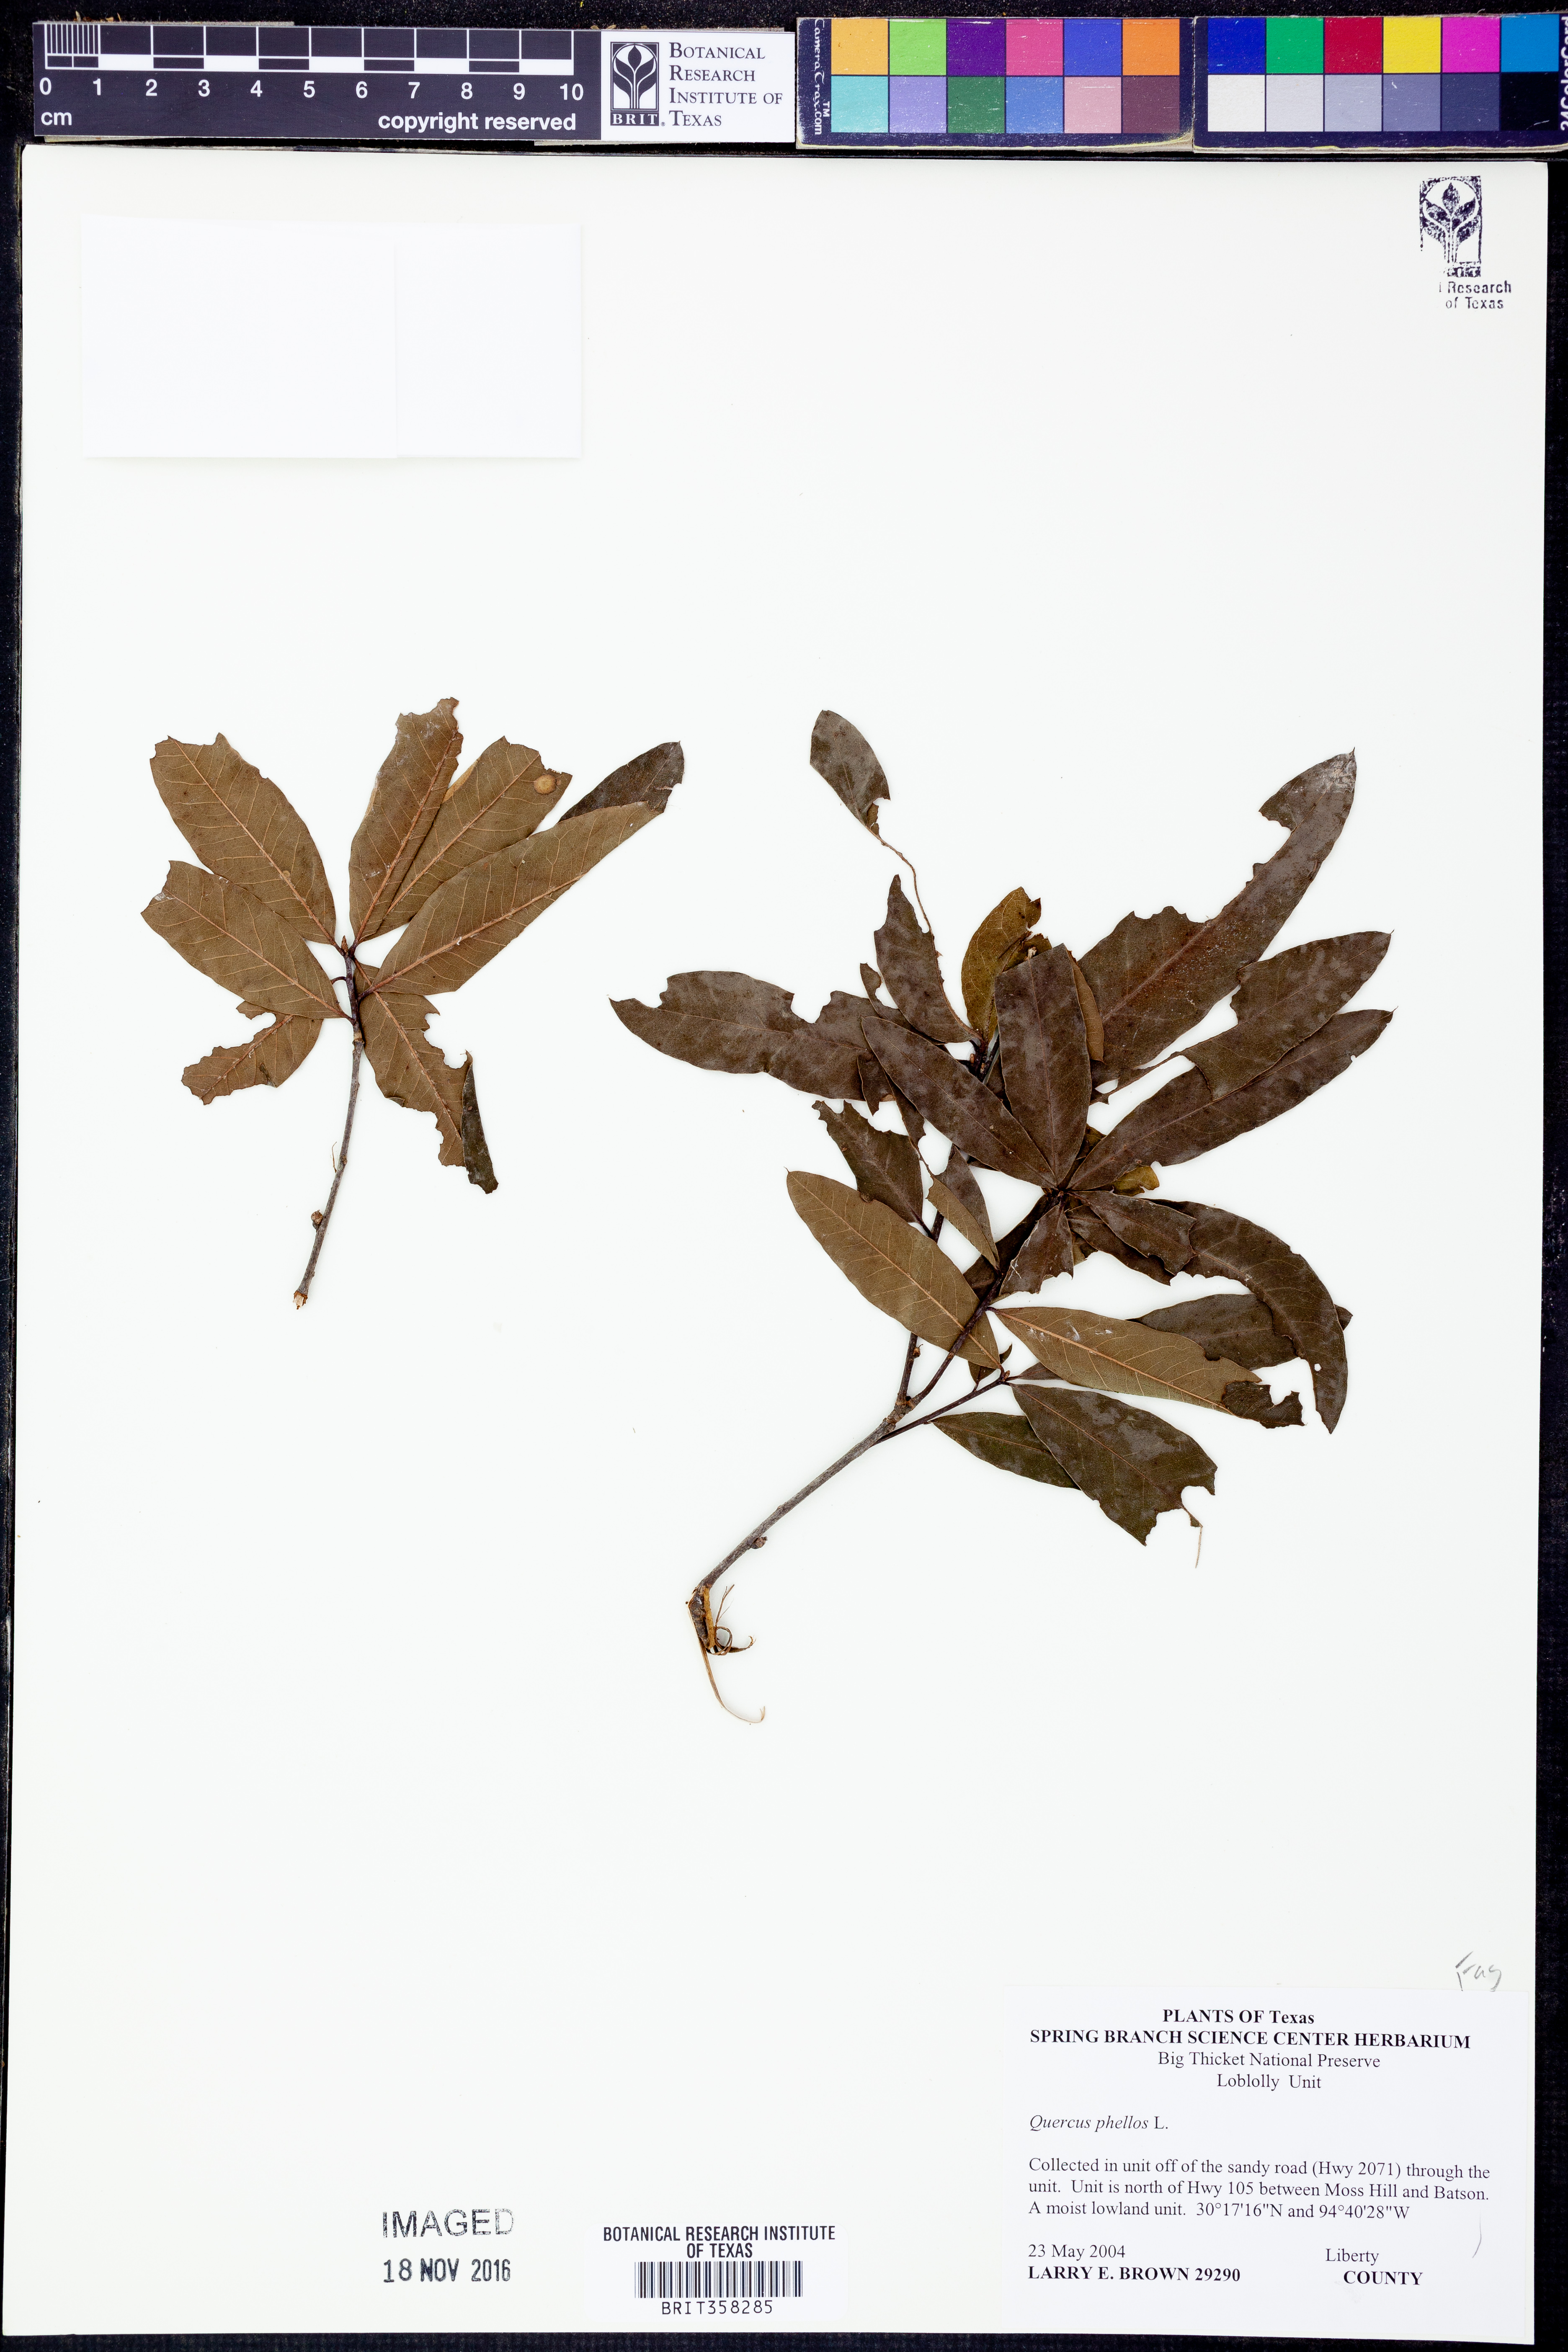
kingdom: Plantae
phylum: Tracheophyta
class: Magnoliopsida
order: Fagales
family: Fagaceae
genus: Quercus
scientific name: Quercus phellos
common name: Willow oak
